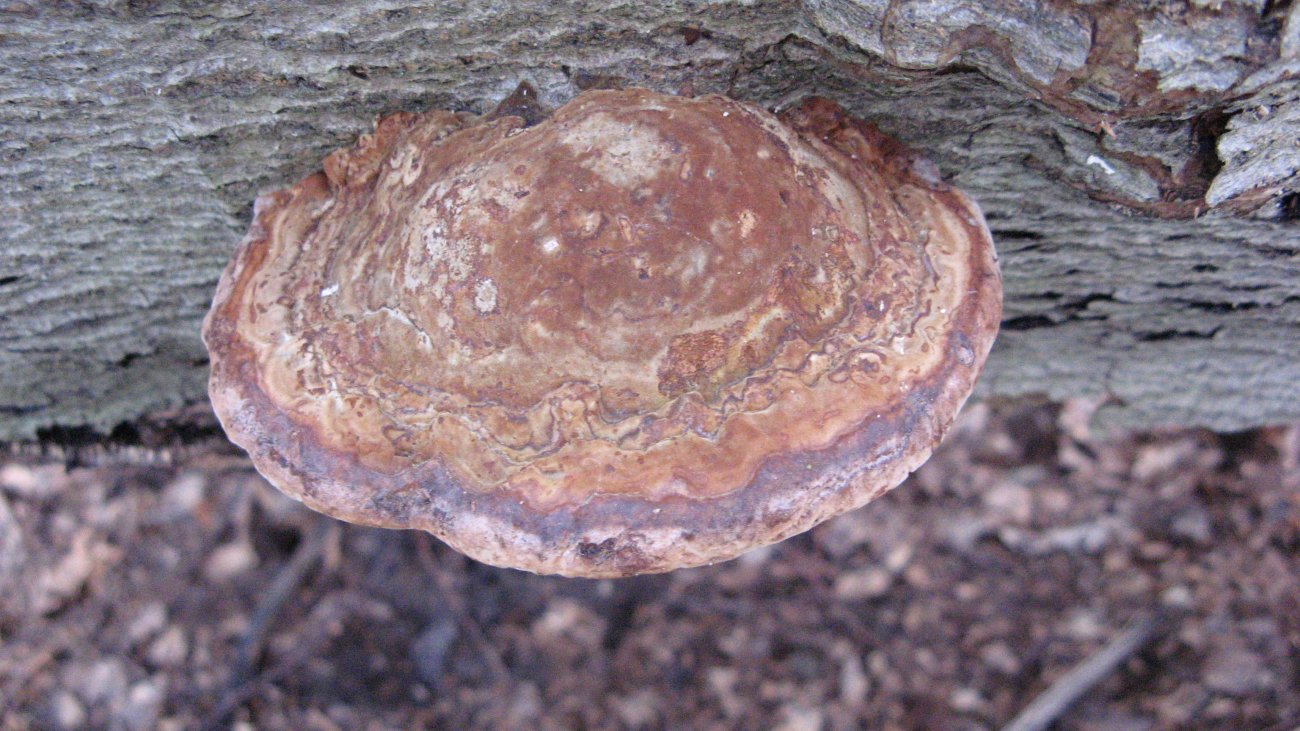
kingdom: Fungi
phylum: Basidiomycota
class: Agaricomycetes
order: Polyporales
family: Polyporaceae
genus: Fomes
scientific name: Fomes fomentarius
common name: tøndersvamp
